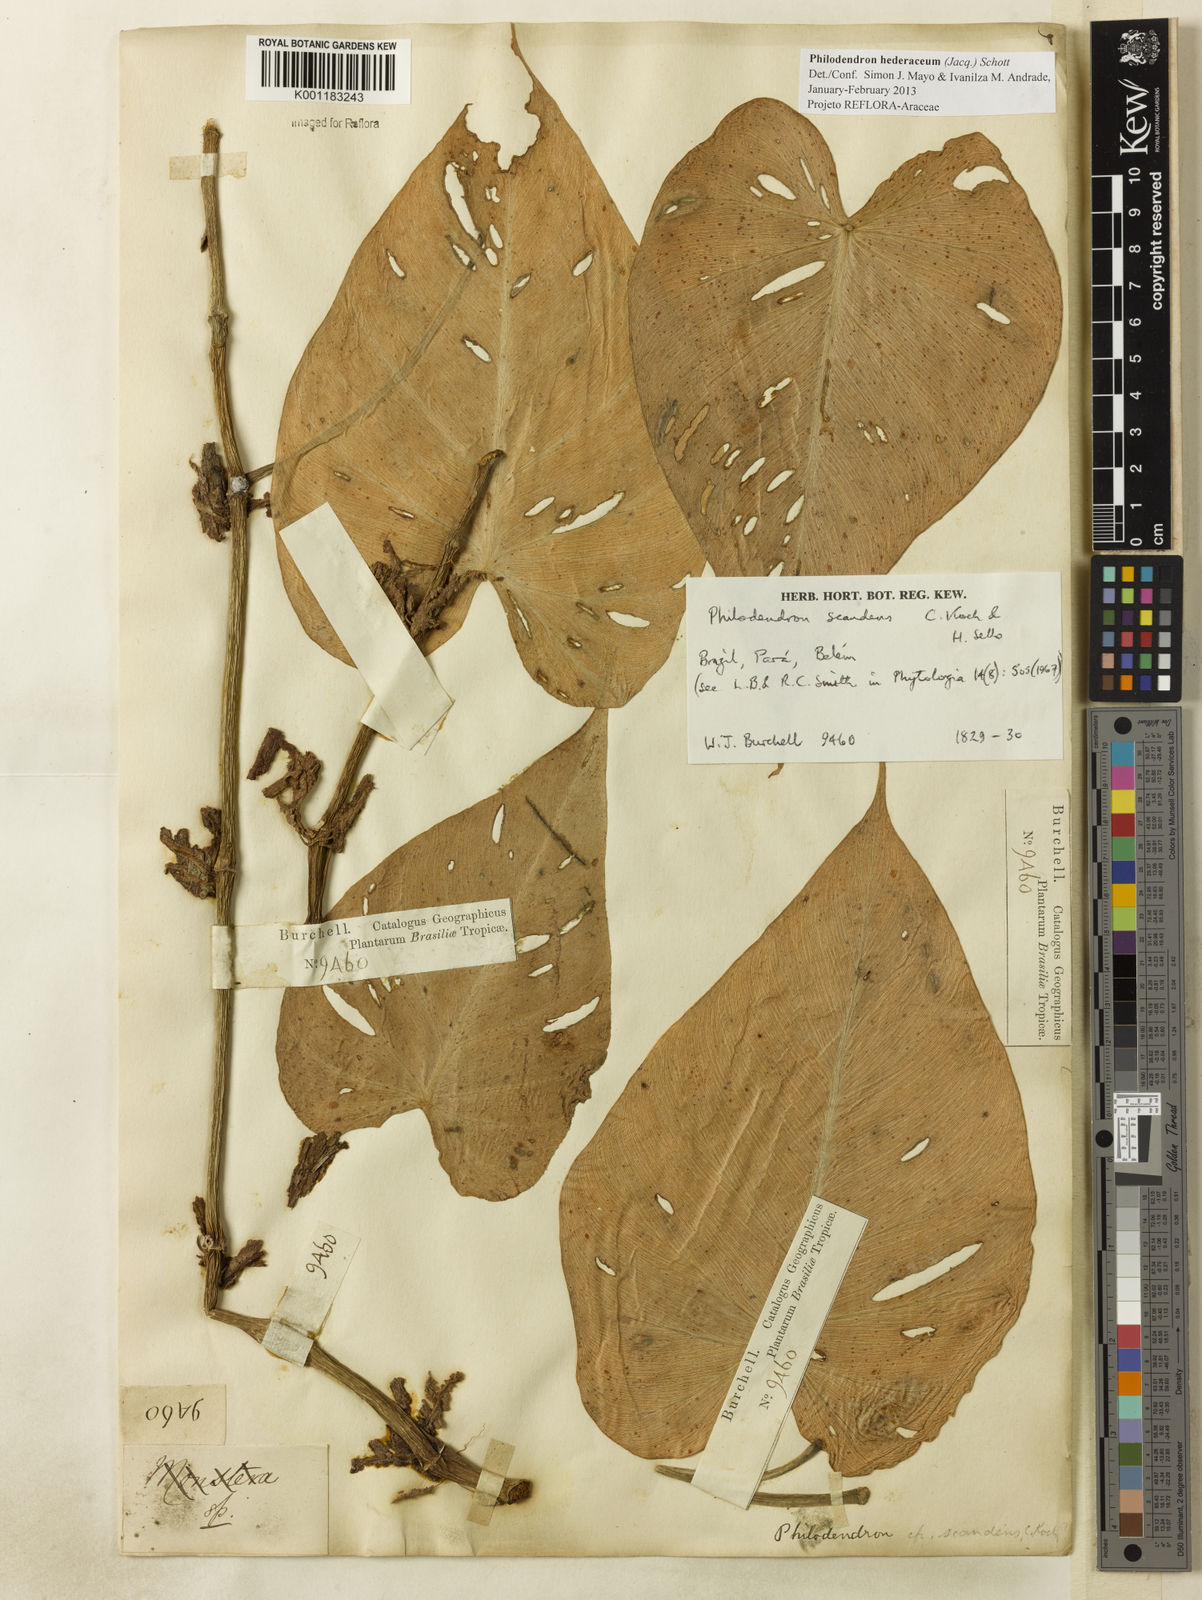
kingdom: Plantae
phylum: Tracheophyta
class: Liliopsida
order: Alismatales
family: Araceae
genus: Philodendron
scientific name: Philodendron hederaceum
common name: Vilevine
